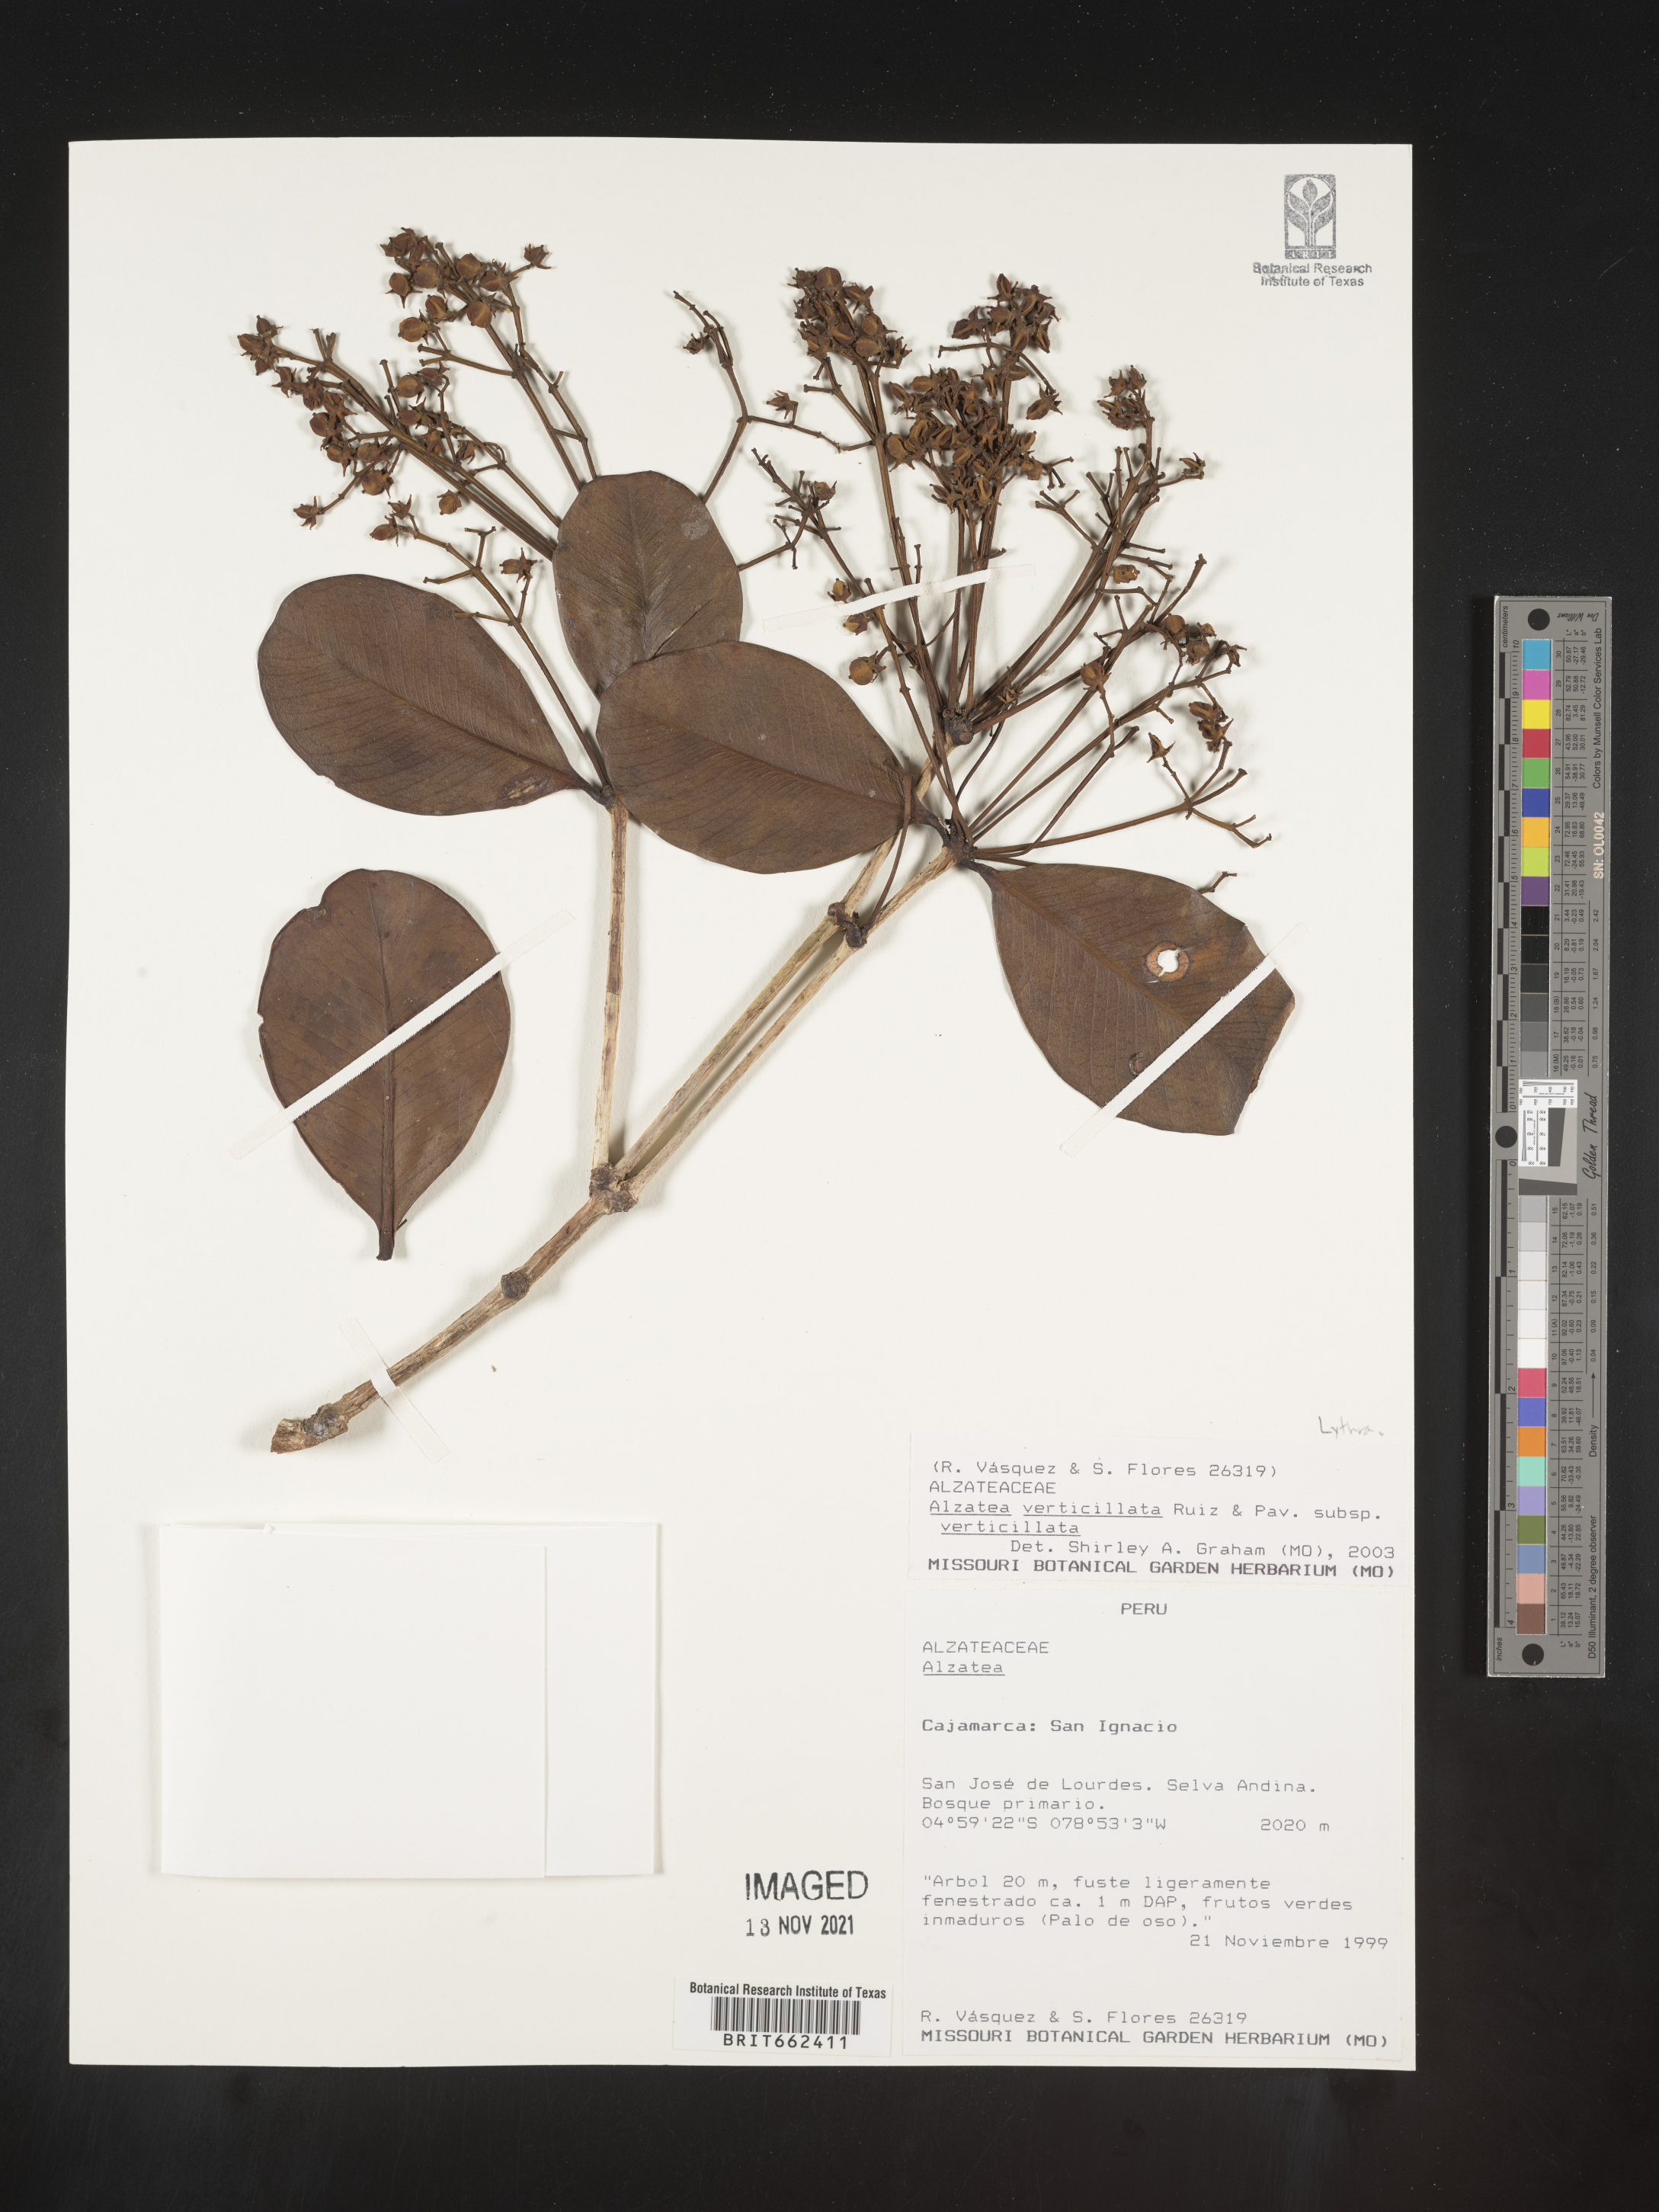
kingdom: Plantae
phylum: Tracheophyta
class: Magnoliopsida
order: Myrtales
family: Alzateaceae
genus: Alzatea
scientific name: Alzatea
